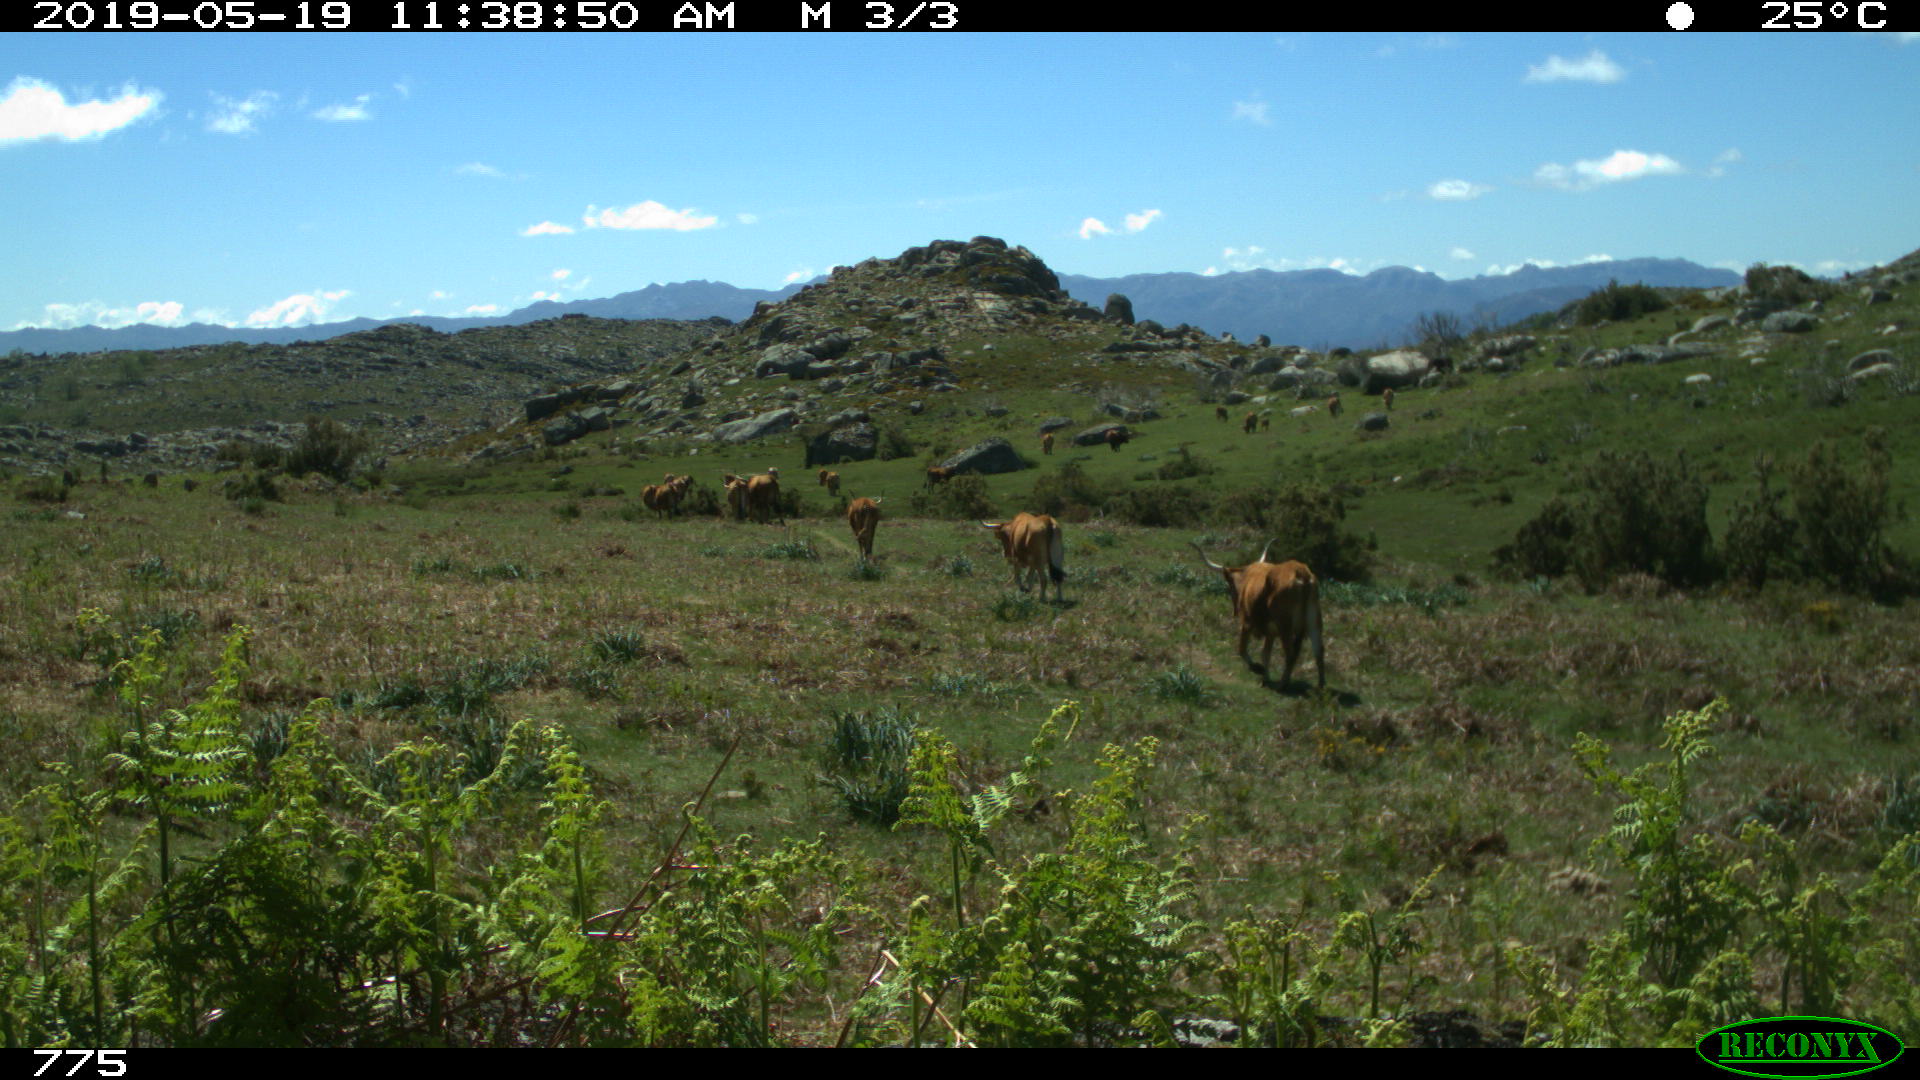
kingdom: Animalia
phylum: Chordata
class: Mammalia
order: Artiodactyla
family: Bovidae
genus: Bos
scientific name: Bos taurus
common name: Domesticated cattle
